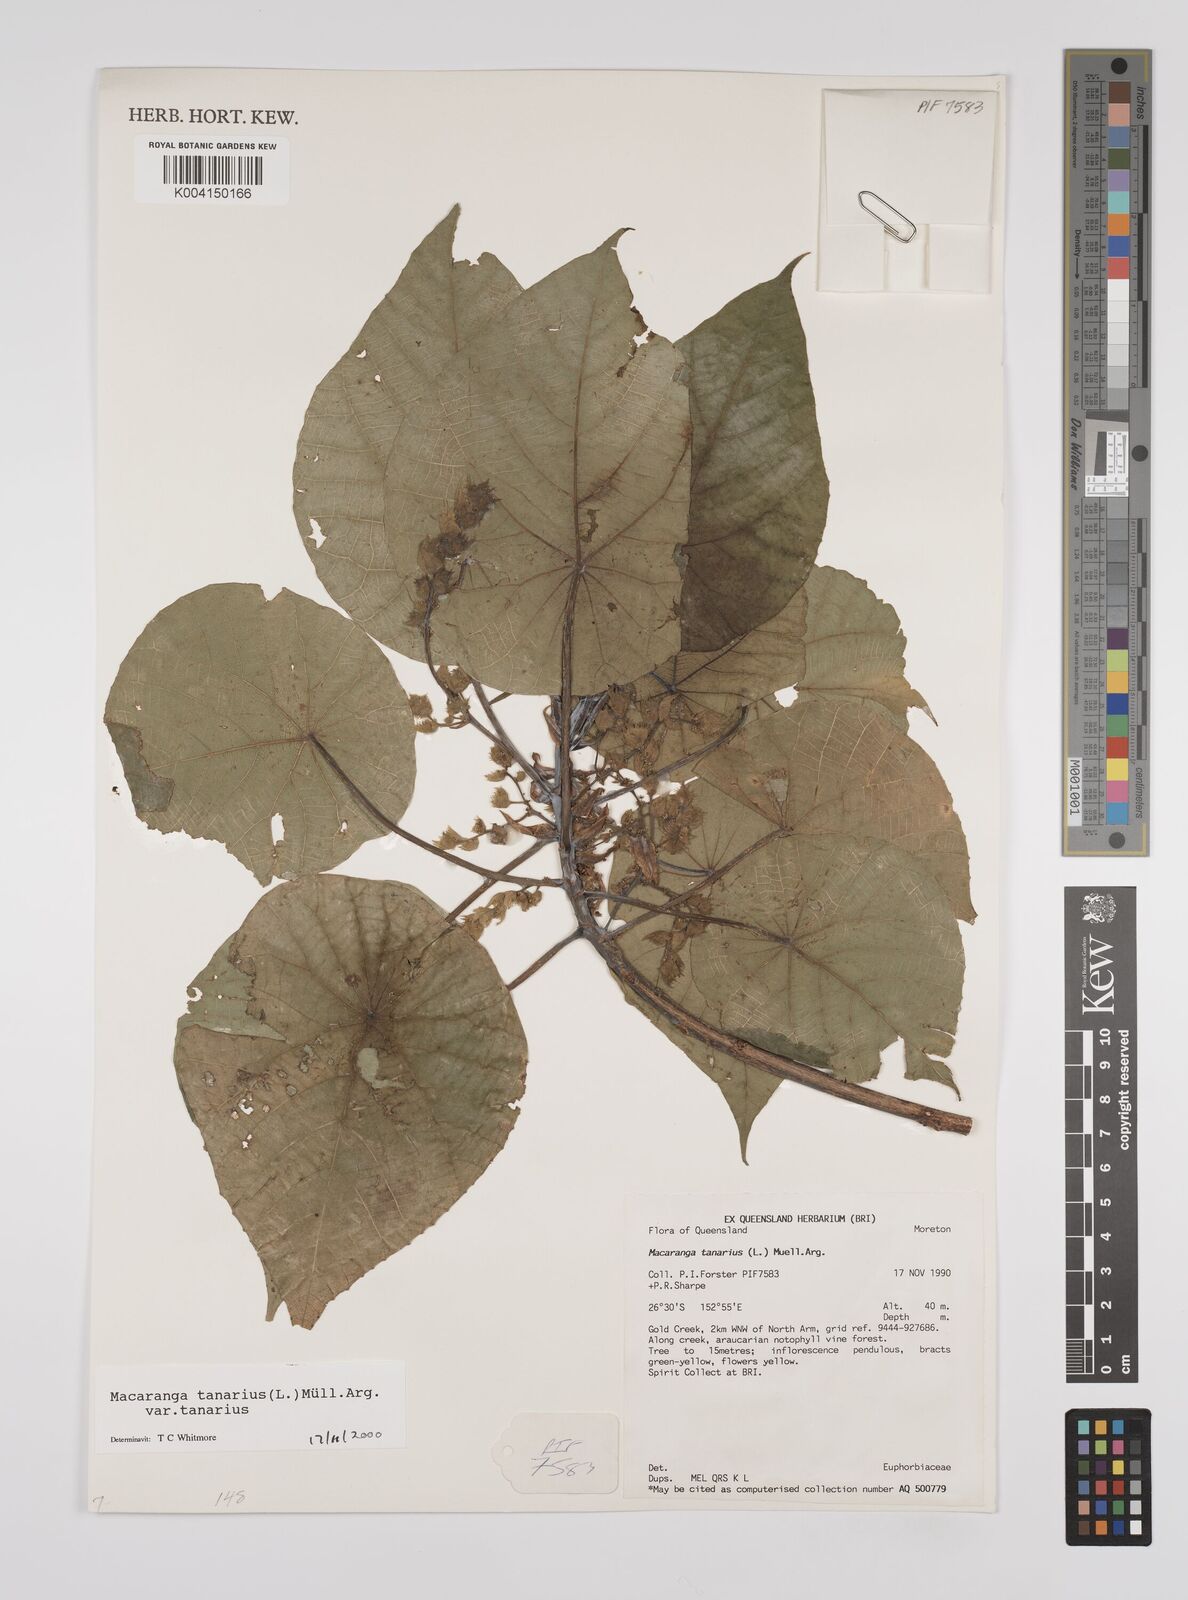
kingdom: Plantae
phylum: Tracheophyta
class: Magnoliopsida
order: Malpighiales
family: Euphorbiaceae
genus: Macaranga
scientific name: Macaranga tanarius
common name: Parasol leaf tree
